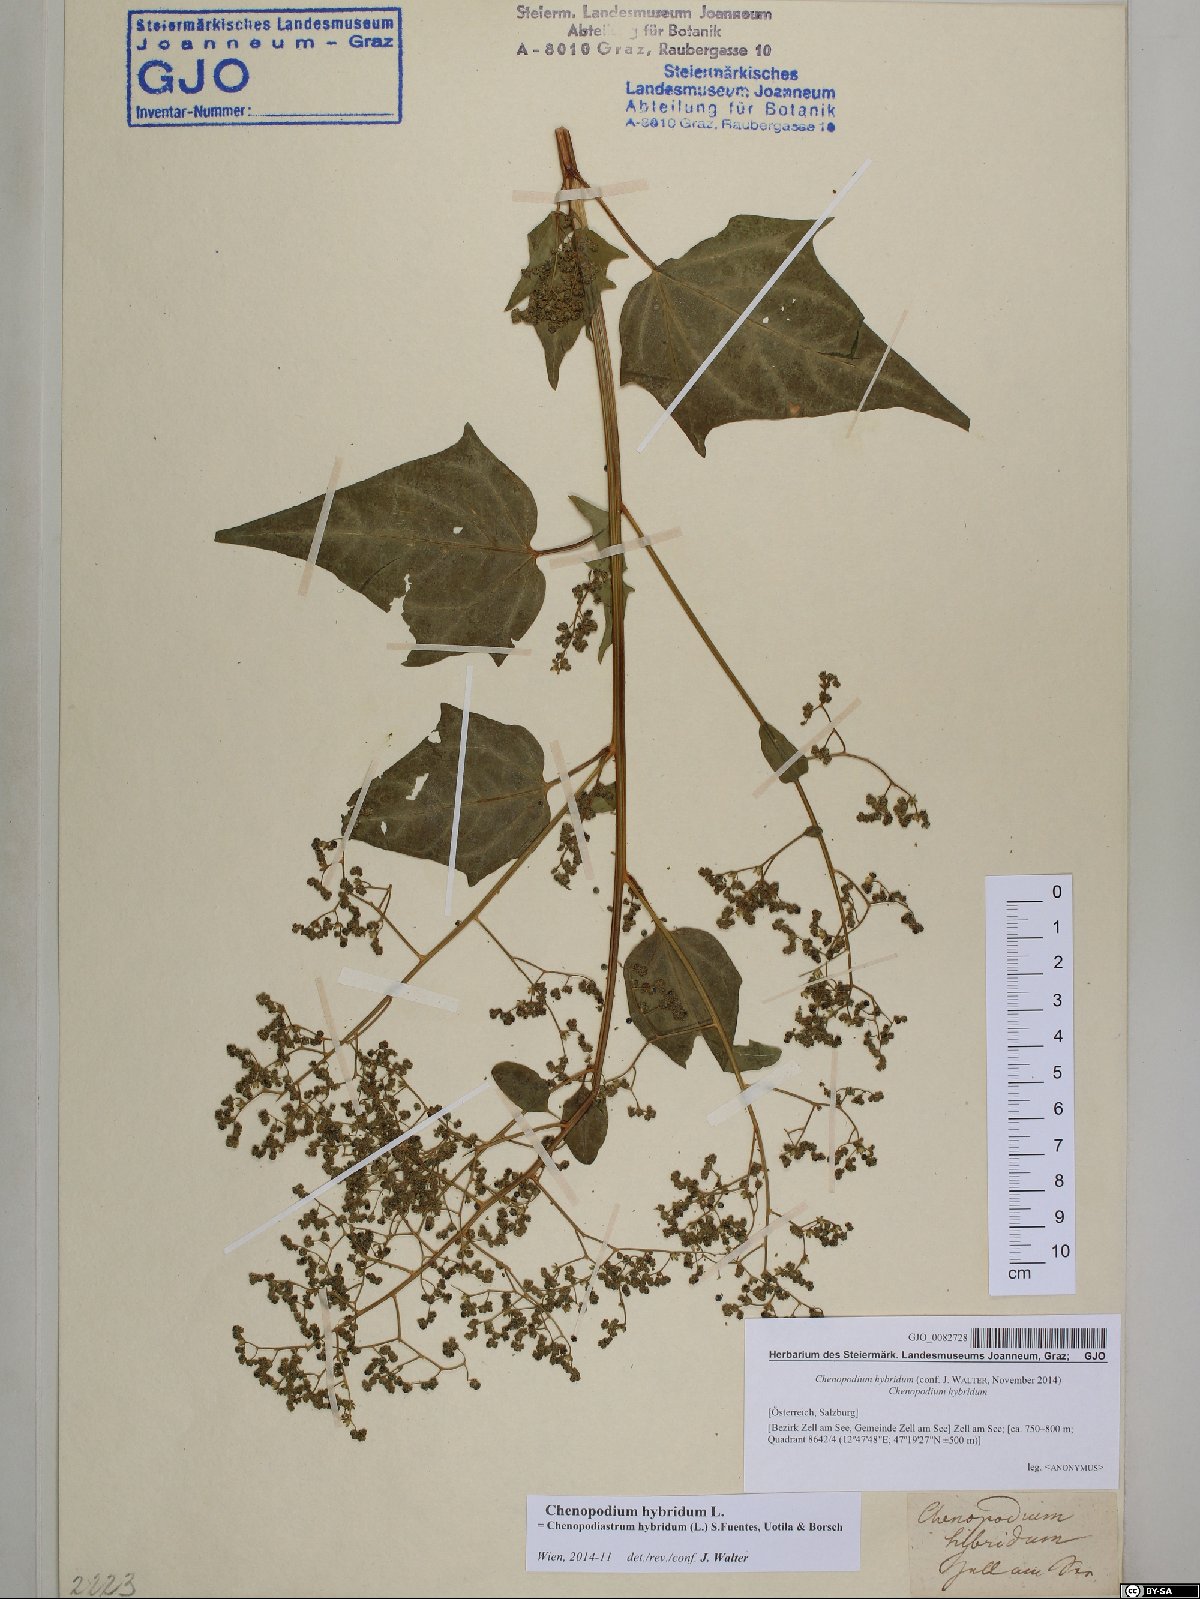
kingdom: Plantae
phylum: Tracheophyta
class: Magnoliopsida
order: Caryophyllales
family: Amaranthaceae
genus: Chenopodiastrum
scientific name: Chenopodiastrum hybridum
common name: Mapleleaf goosefoot
